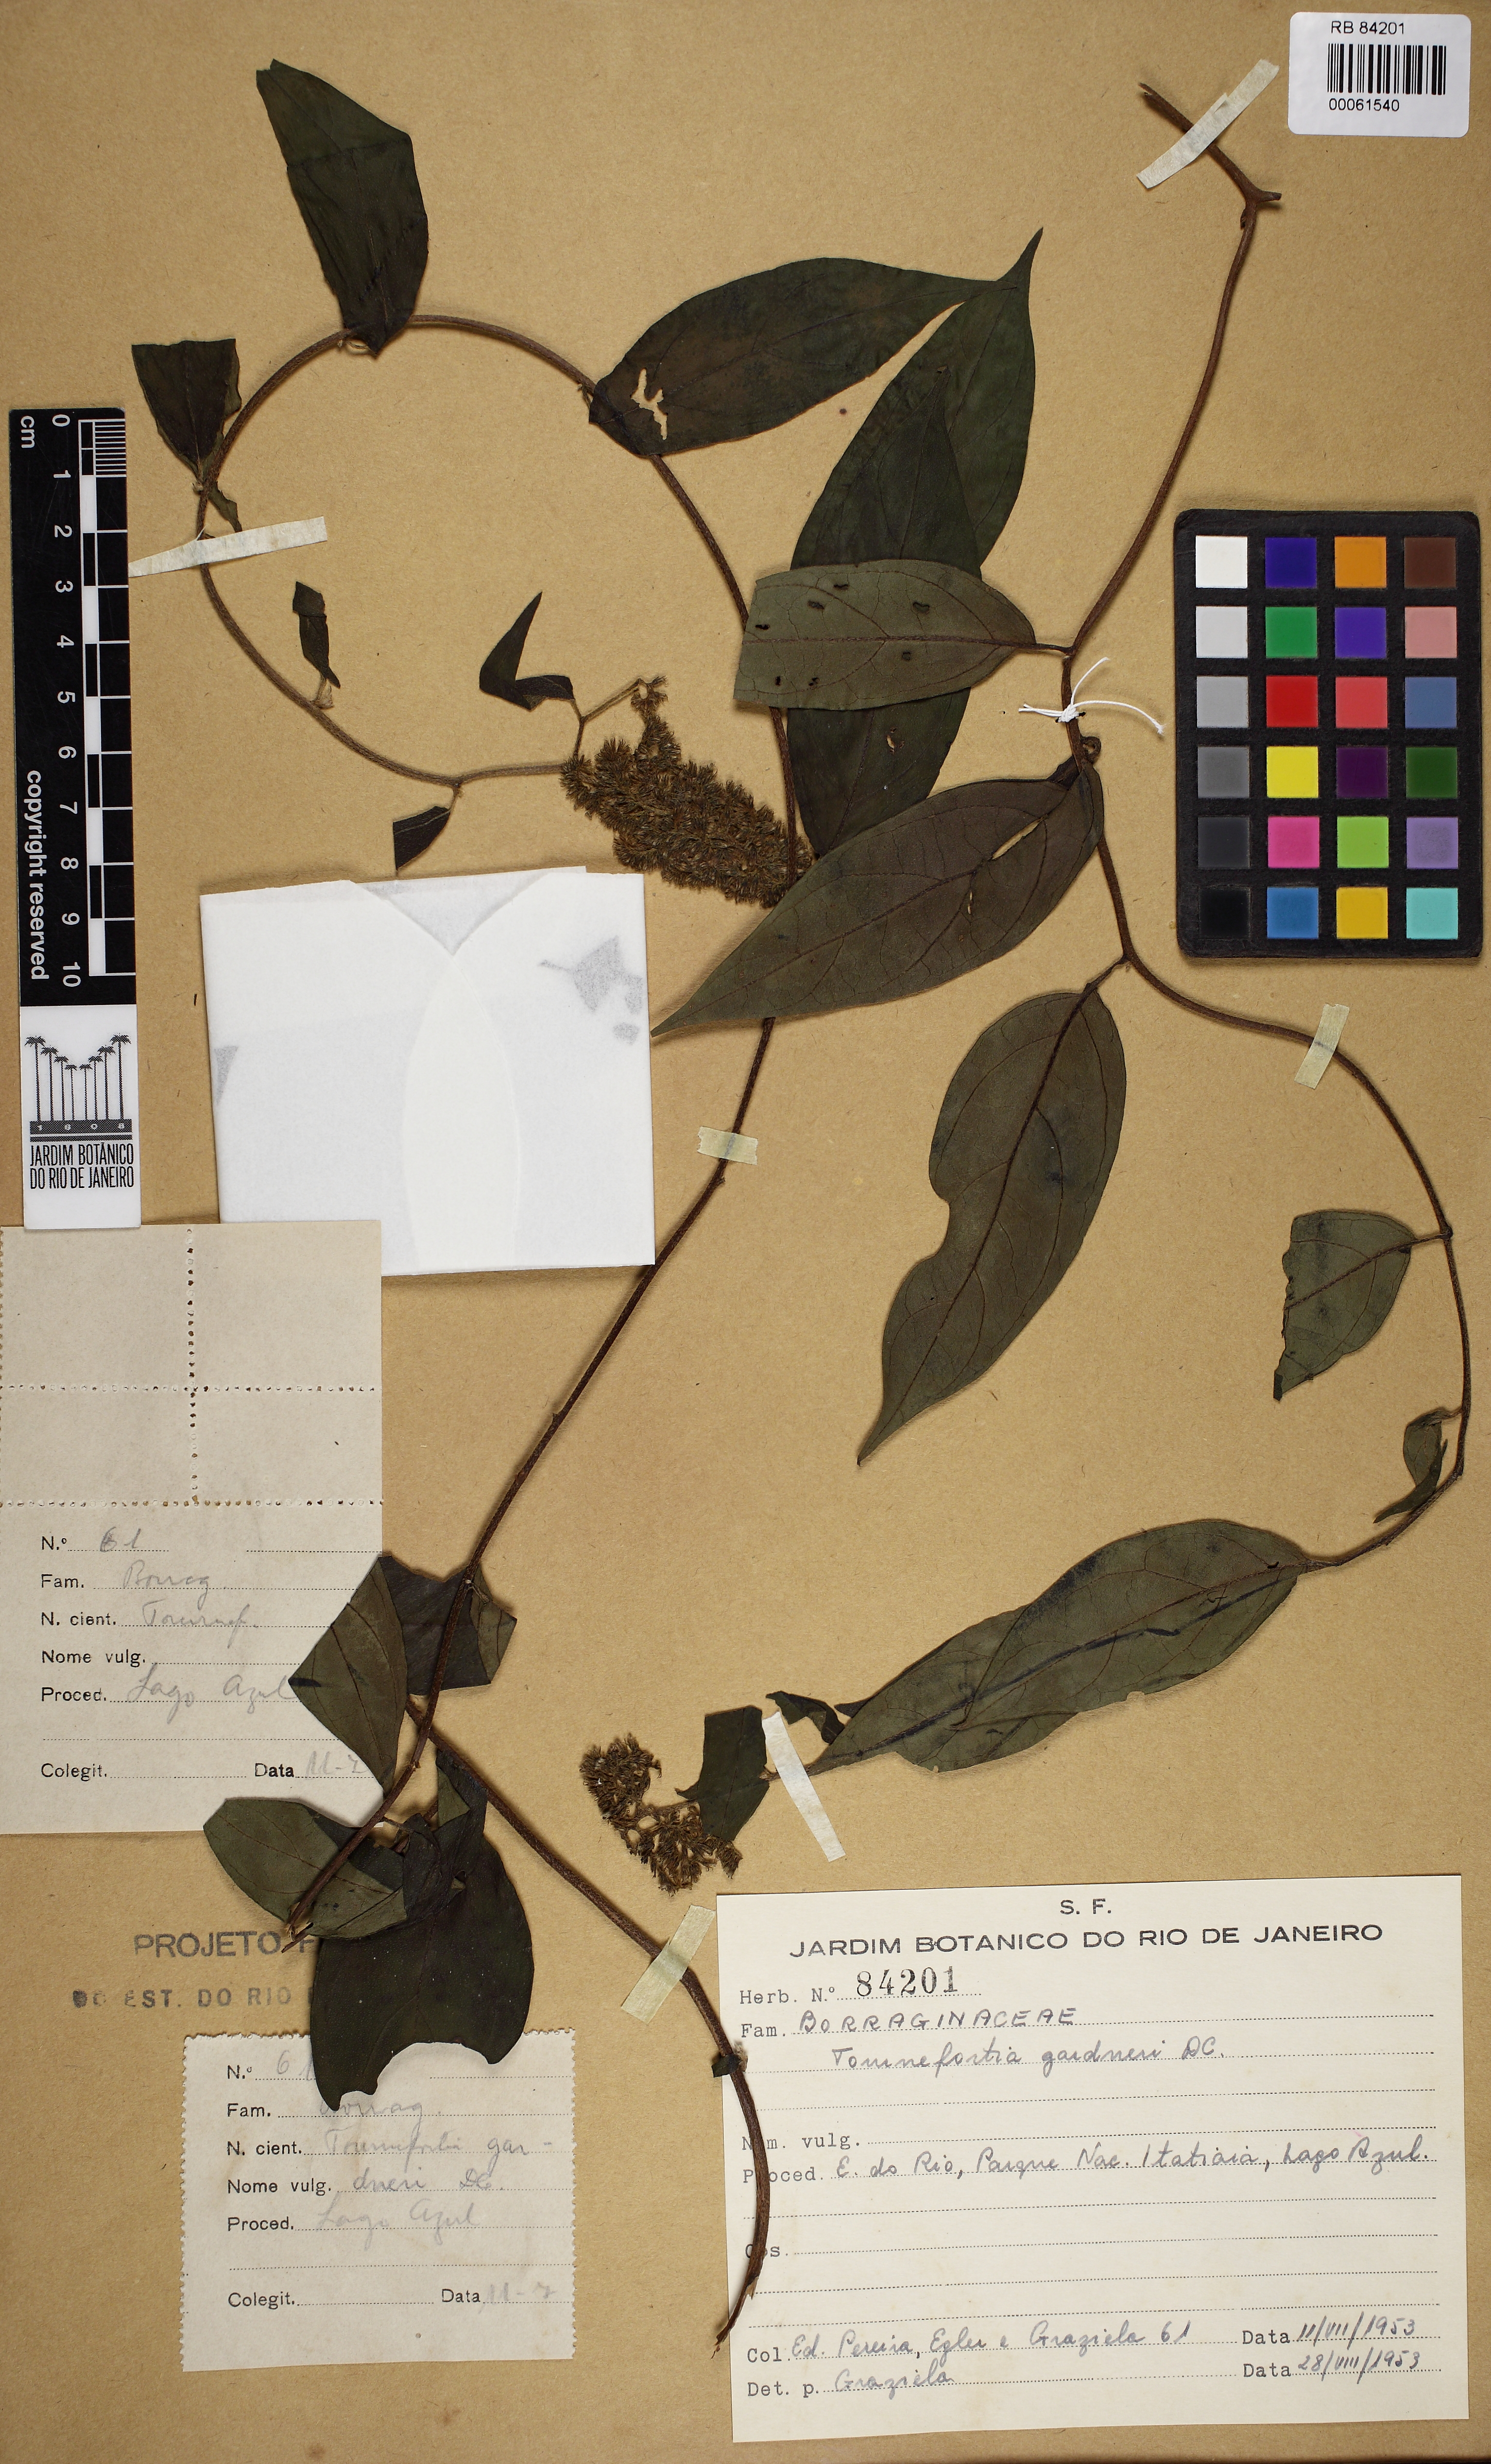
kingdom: Plantae
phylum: Tracheophyta
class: Magnoliopsida
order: Boraginales
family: Heliotropiaceae
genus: Myriopus
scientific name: Myriopus breviflorus
